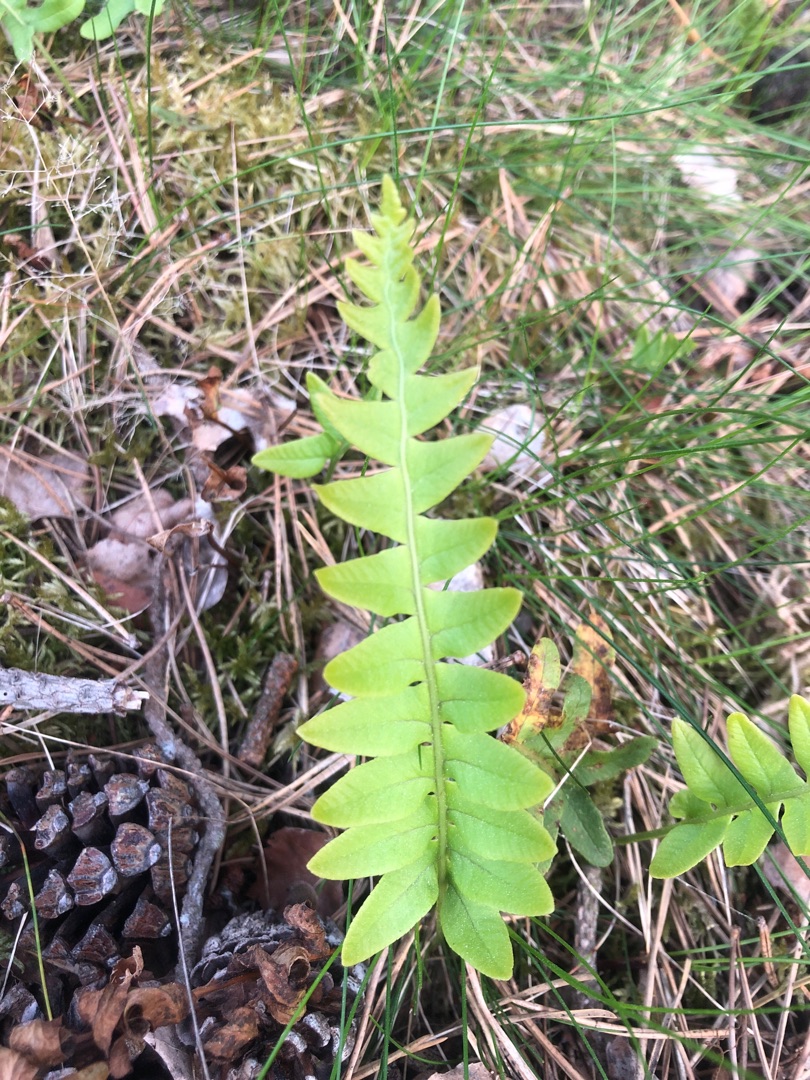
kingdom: Plantae
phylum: Tracheophyta
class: Polypodiopsida
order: Polypodiales
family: Polypodiaceae
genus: Polypodium
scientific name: Polypodium vulgare
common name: Almindelig engelsød
